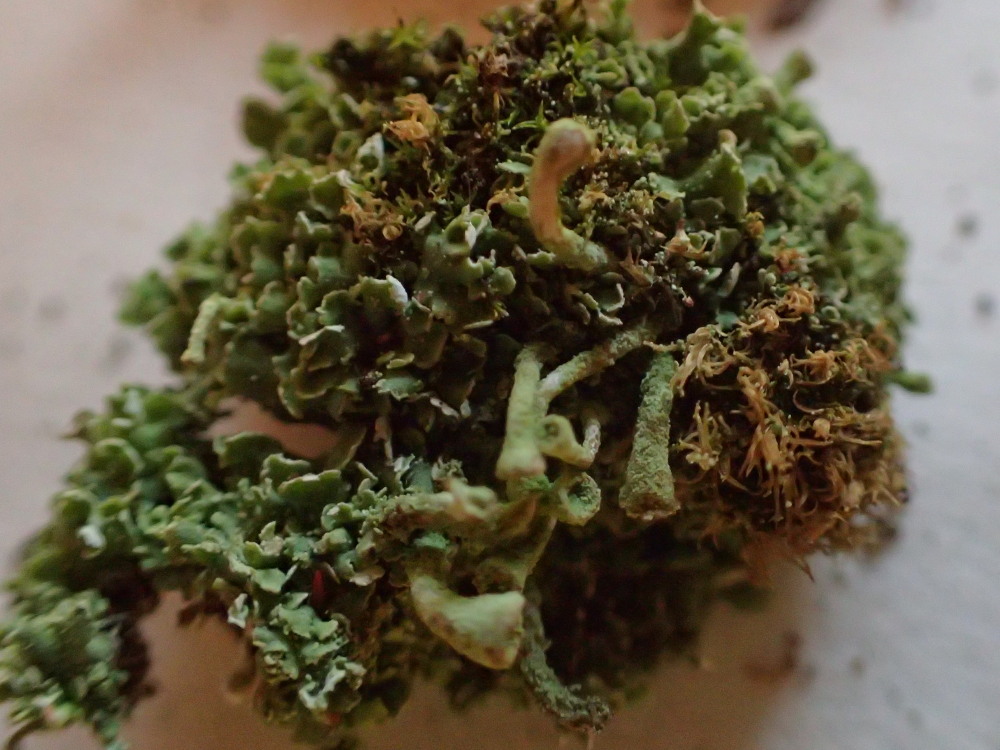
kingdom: Fungi
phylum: Ascomycota
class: Lecanoromycetes
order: Lecanorales
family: Cladoniaceae
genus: Cladonia
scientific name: Cladonia fimbriata
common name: bleggrøn bægerlav
